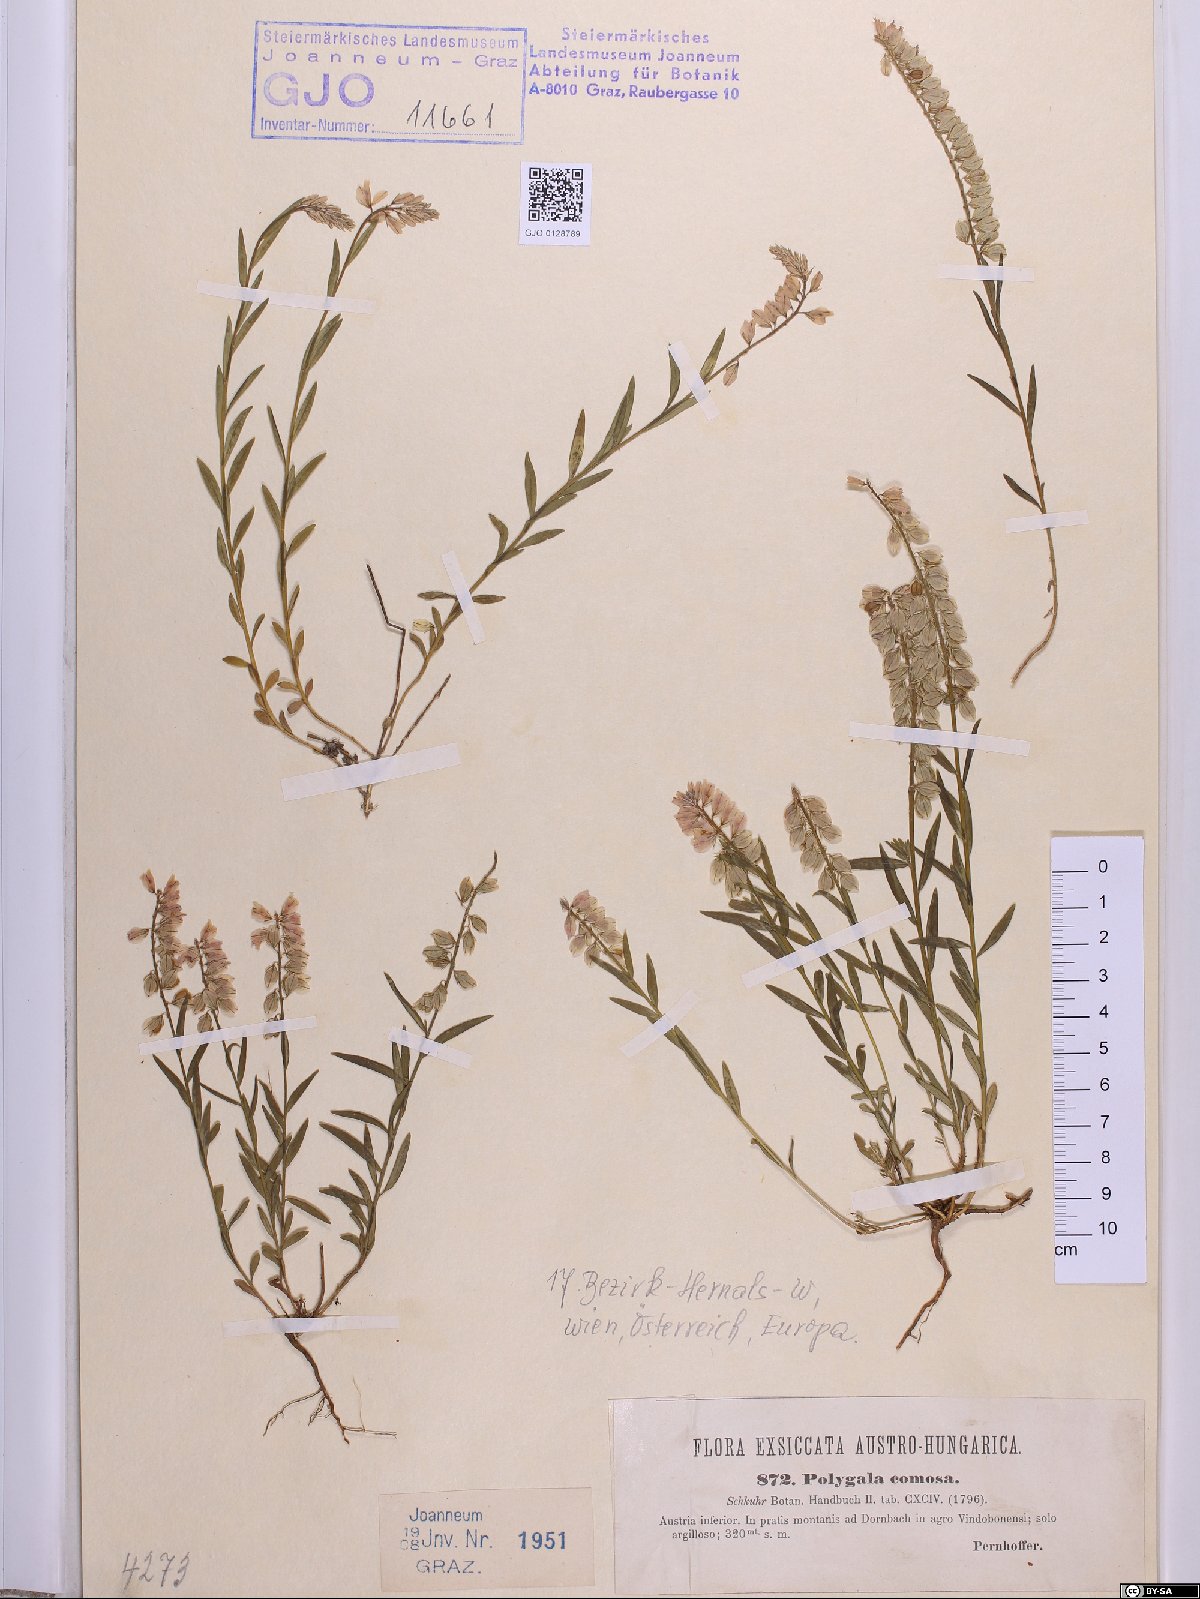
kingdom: Plantae
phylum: Tracheophyta
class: Magnoliopsida
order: Fabales
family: Polygalaceae
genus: Polygala
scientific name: Polygala comosa
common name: Tufted milkwort
